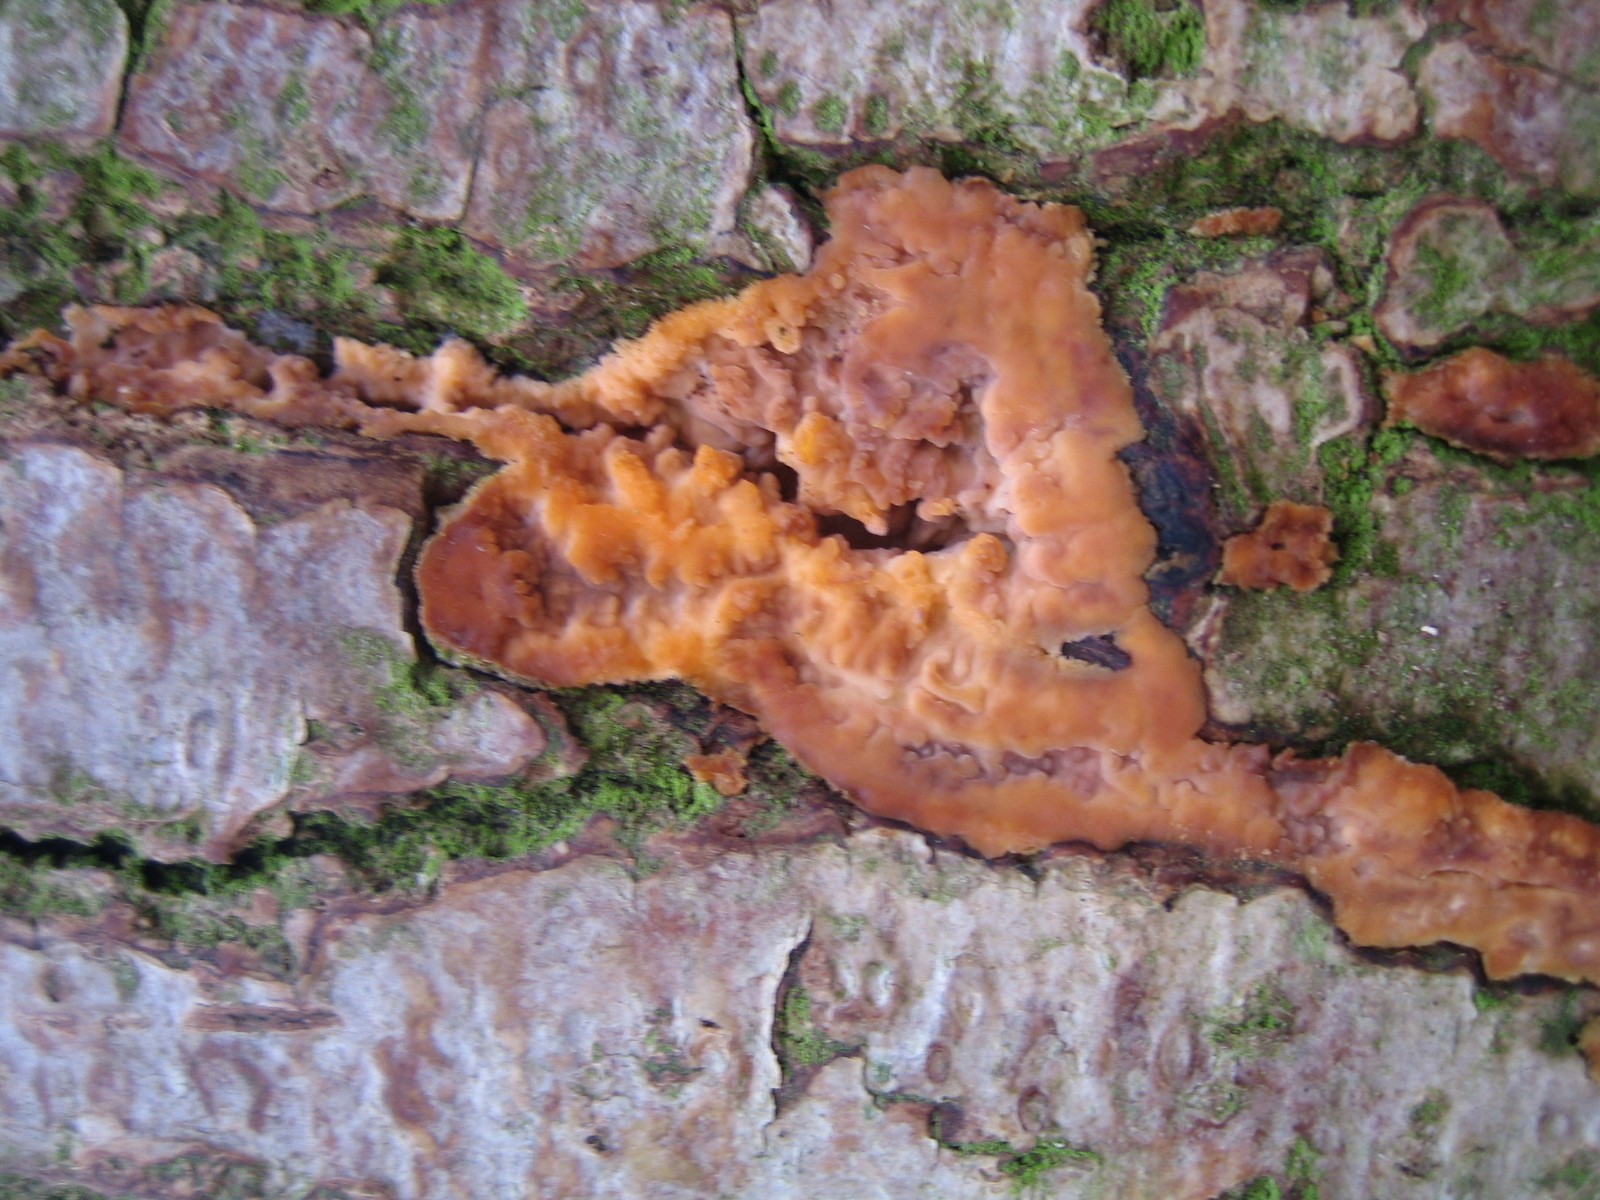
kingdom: Fungi
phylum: Basidiomycota
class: Agaricomycetes
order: Polyporales
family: Meruliaceae
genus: Phlebia
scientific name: Phlebia radiata
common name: stråle-åresvamp
